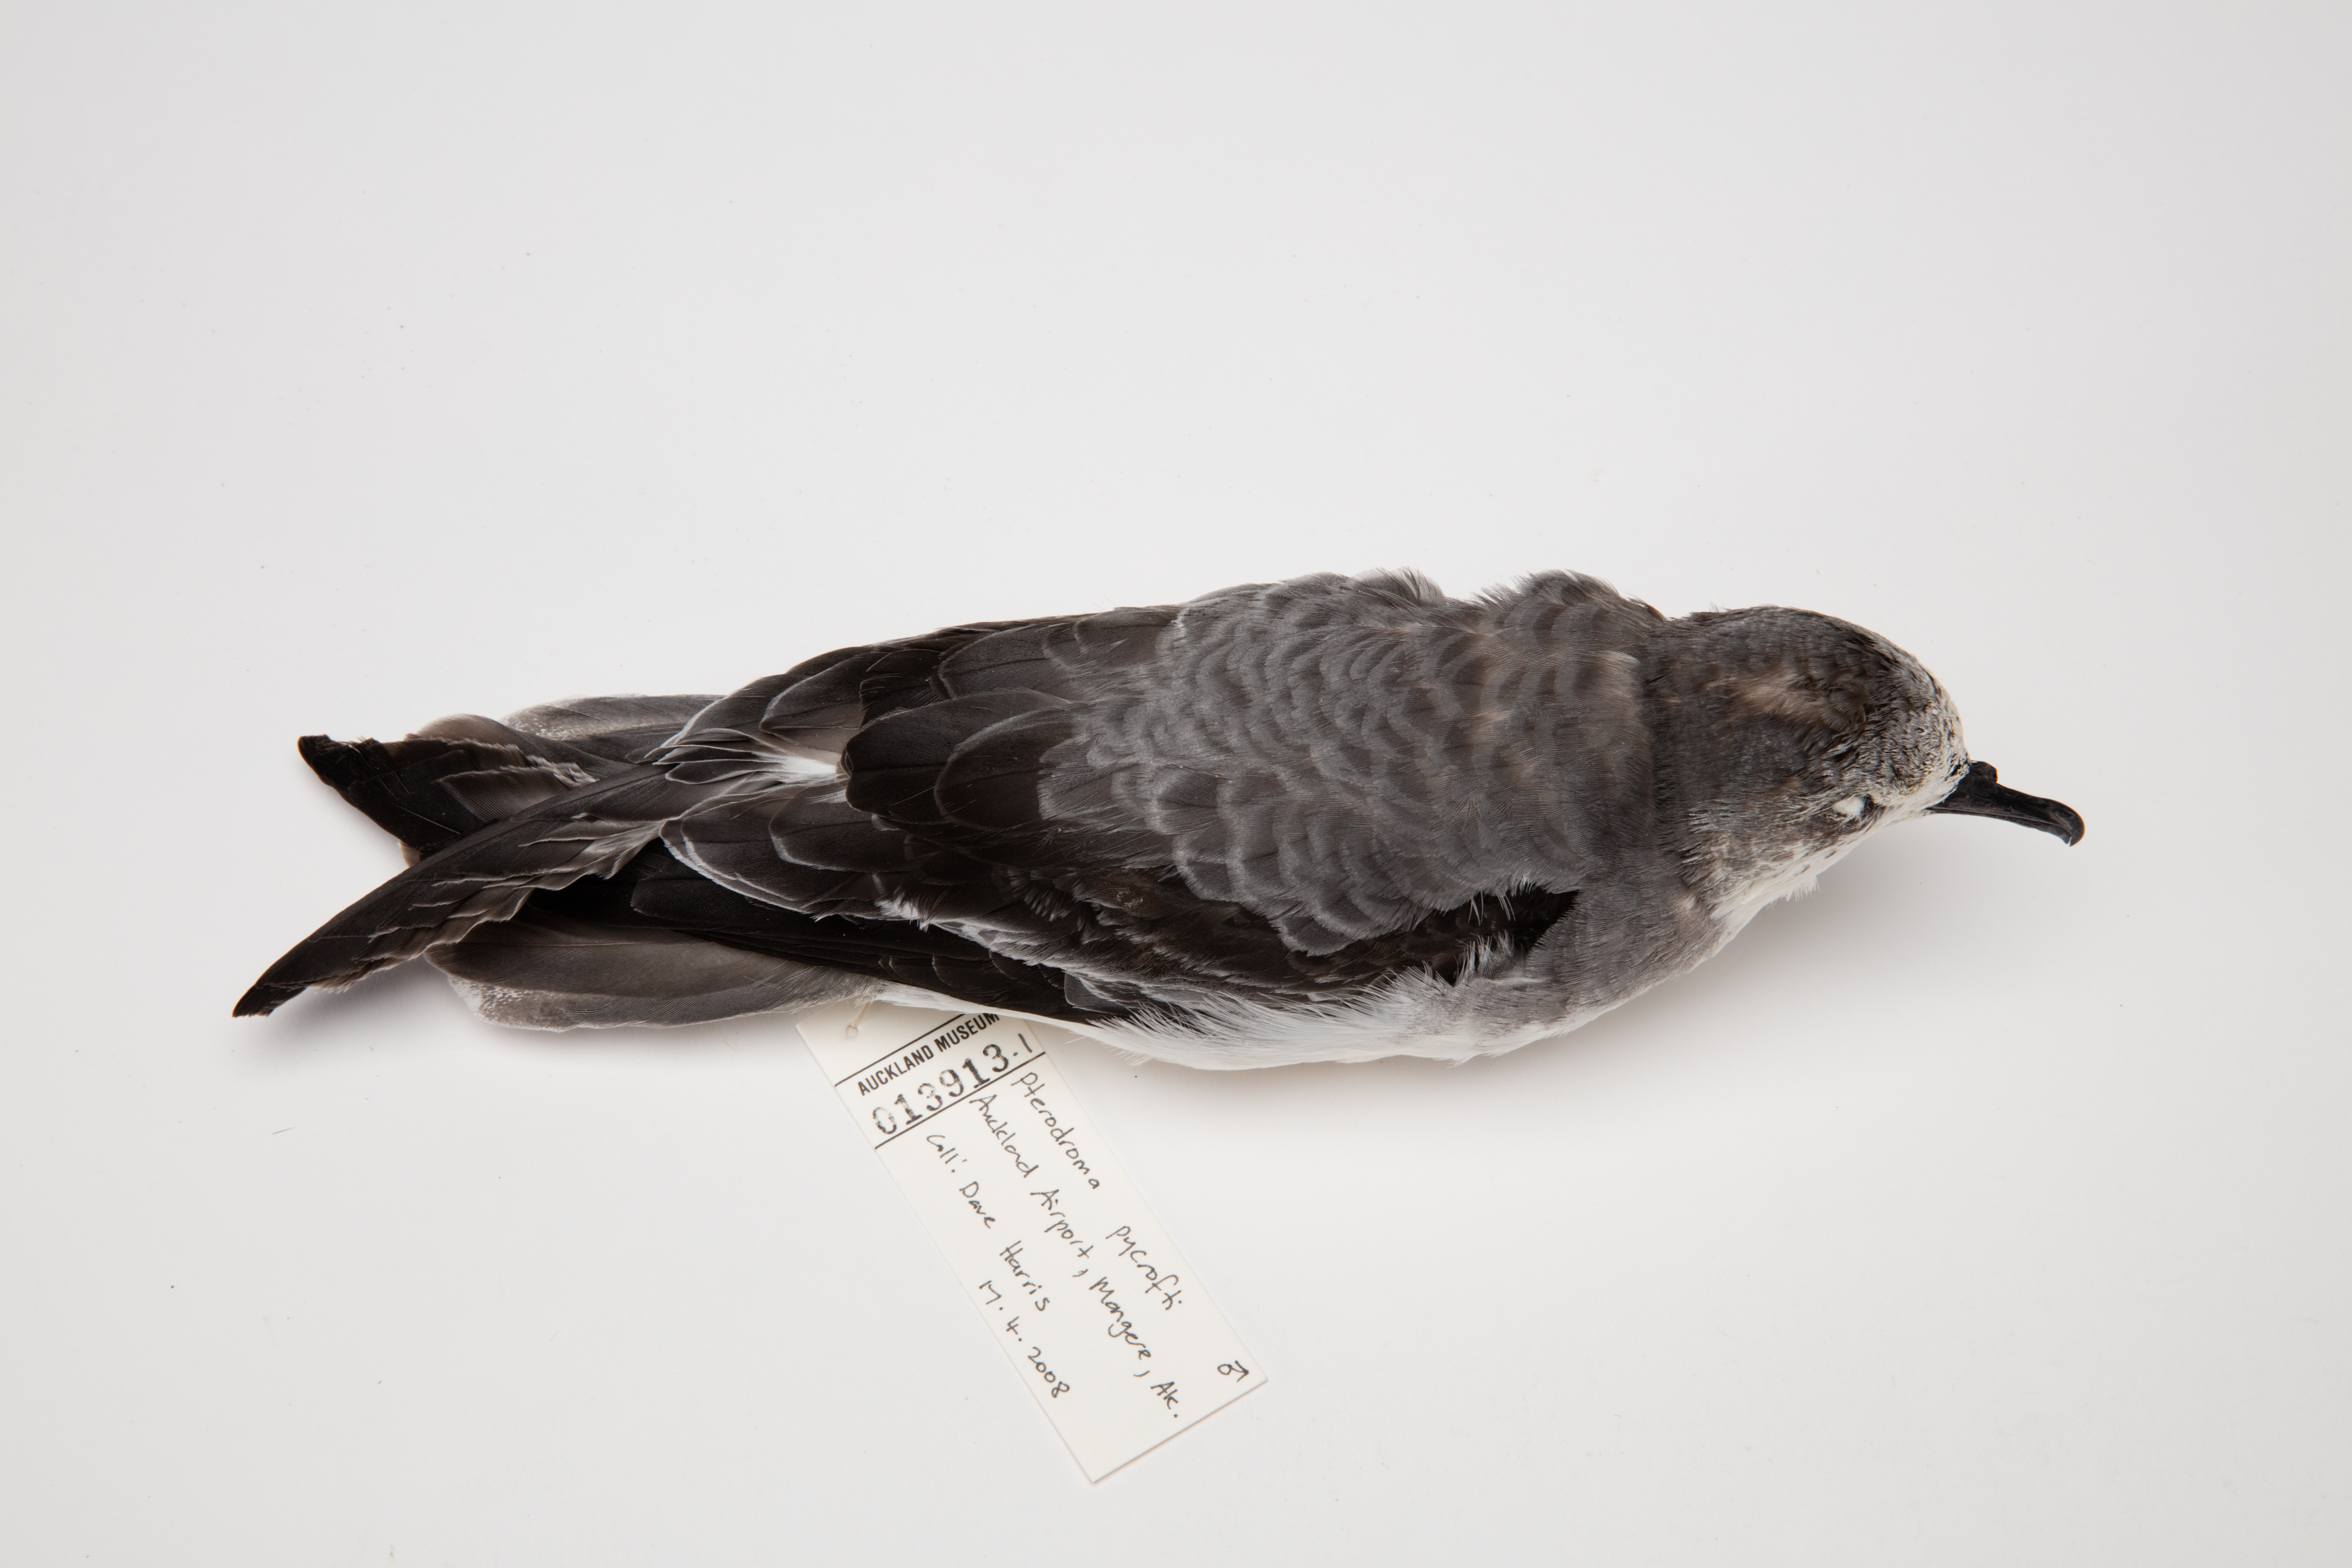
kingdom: Animalia
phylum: Chordata
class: Aves
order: Procellariiformes
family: Procellariidae
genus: Pterodroma
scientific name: Pterodroma pycrofti
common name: Pycroft's petrel
